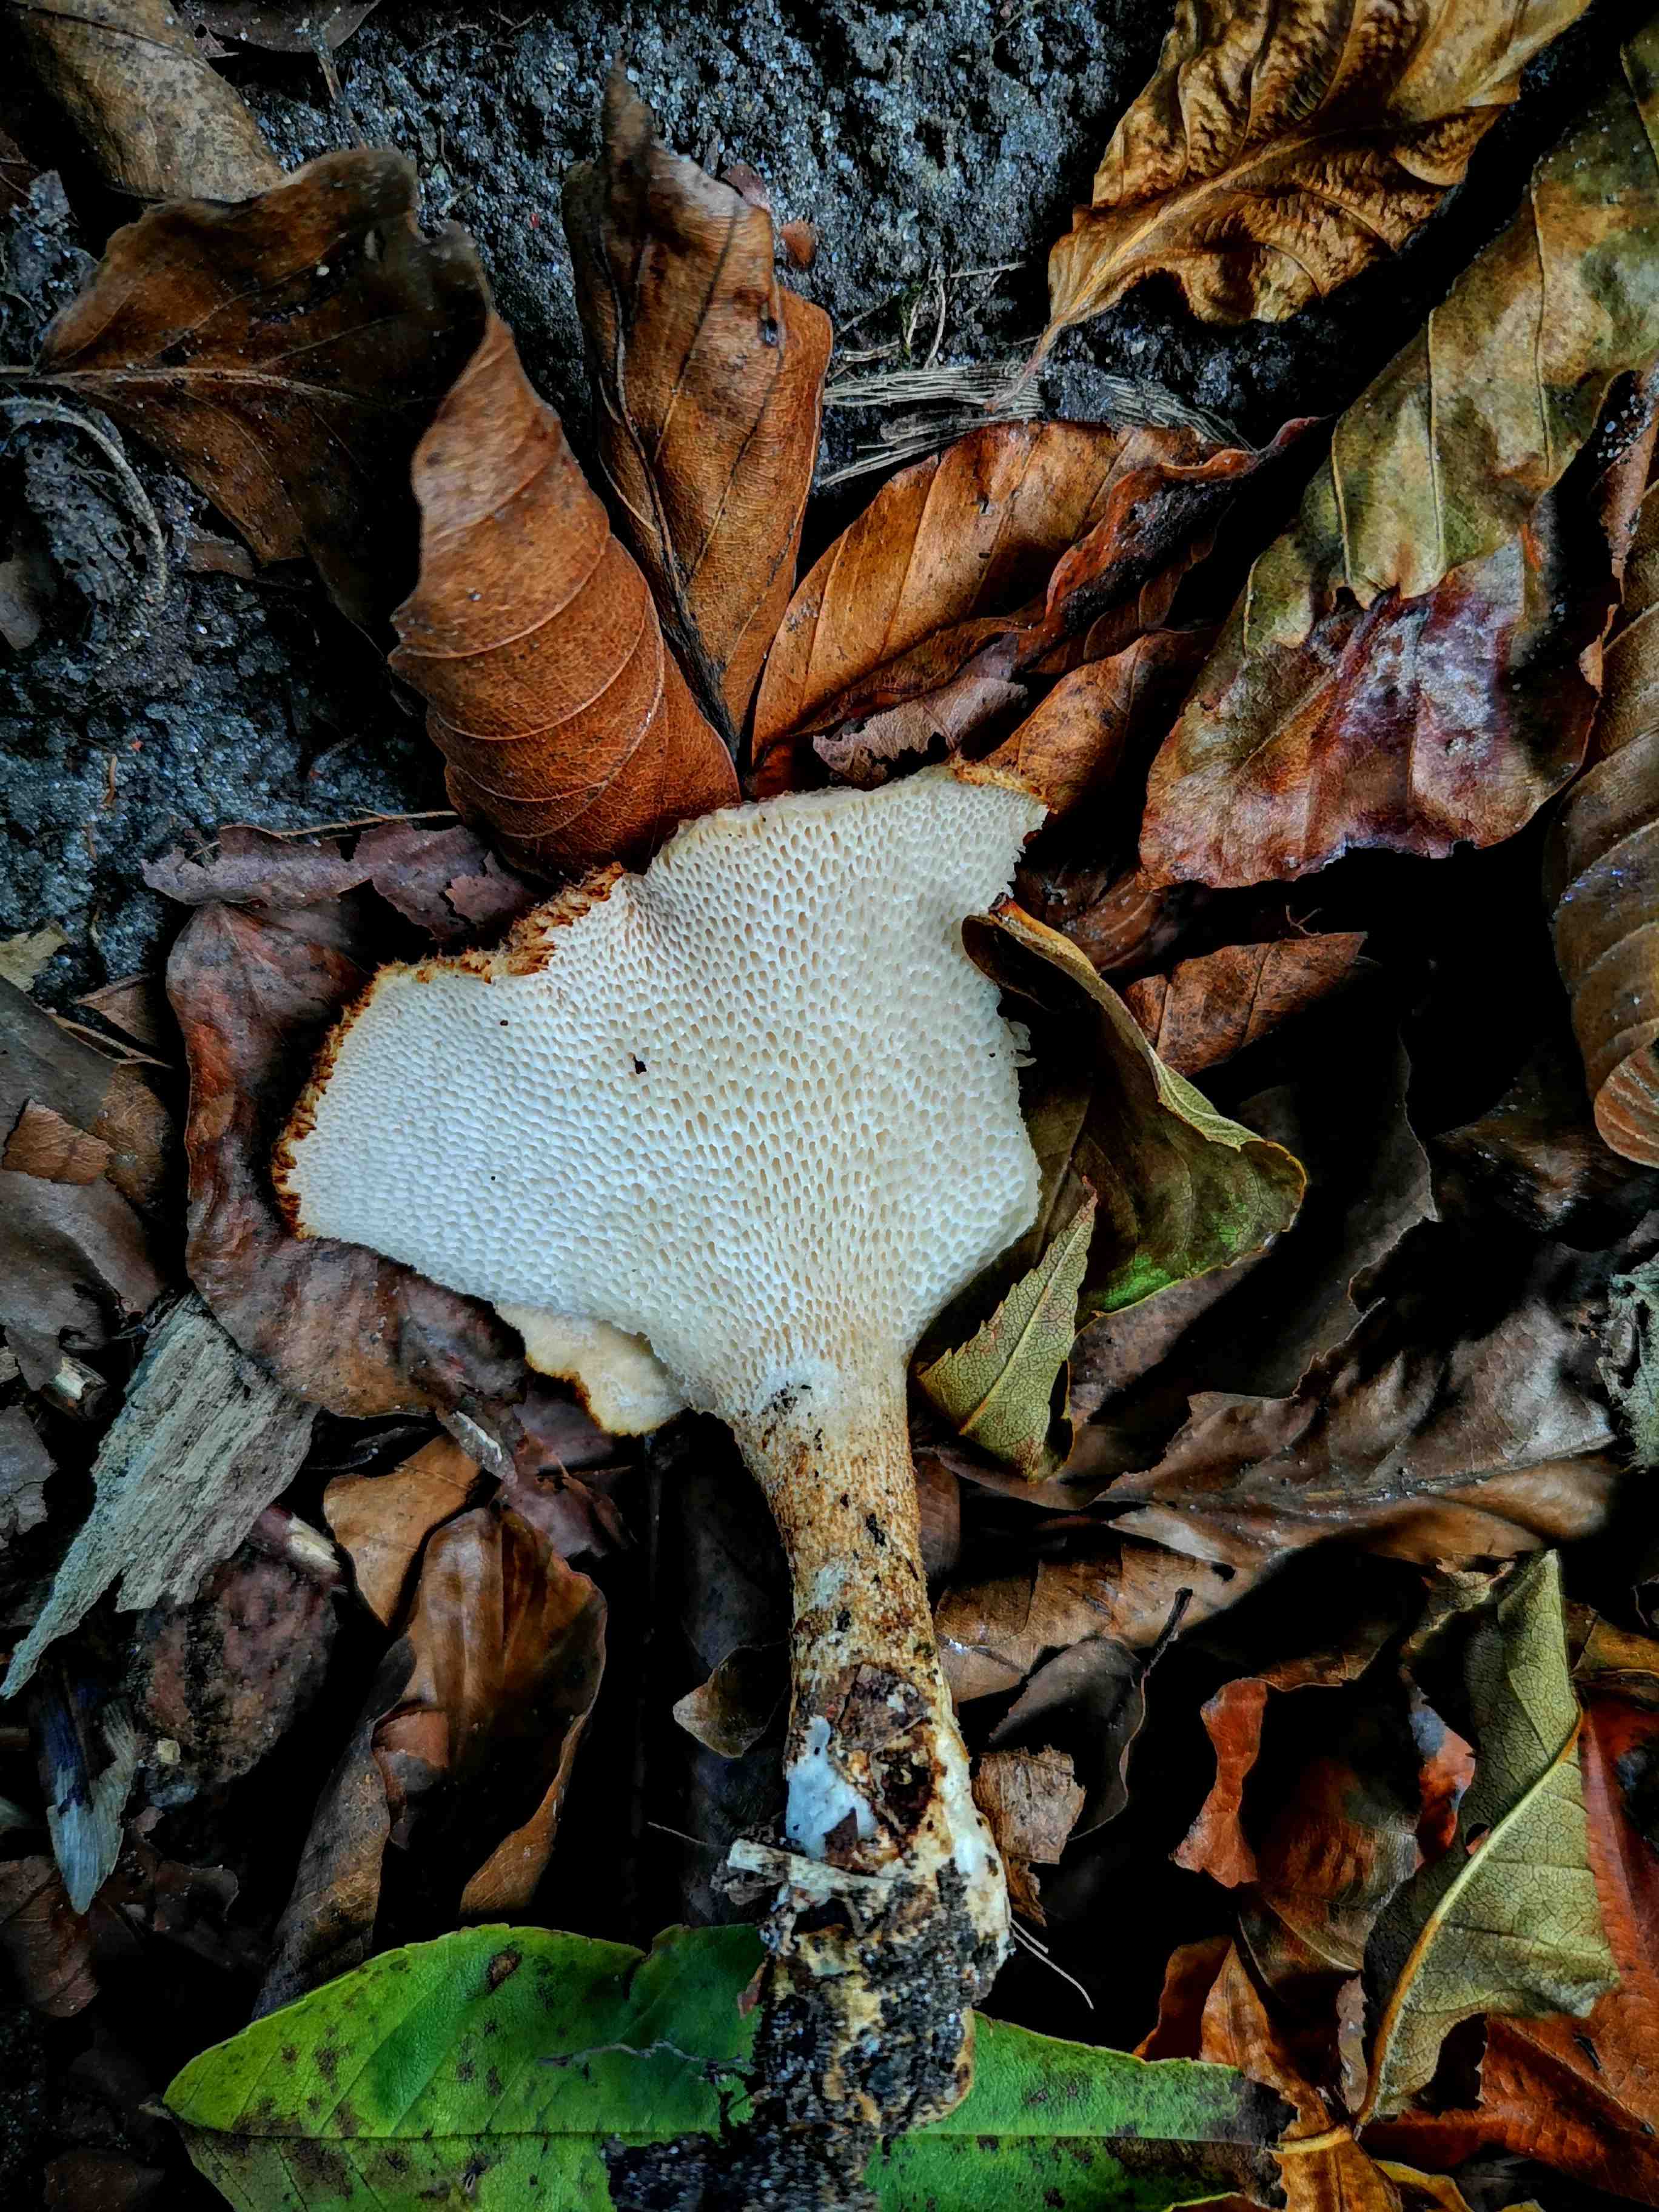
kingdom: Fungi
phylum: Basidiomycota
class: Agaricomycetes
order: Polyporales
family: Polyporaceae
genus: Polyporus
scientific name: Polyporus tuberaster
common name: knoldet stilkporesvamp
